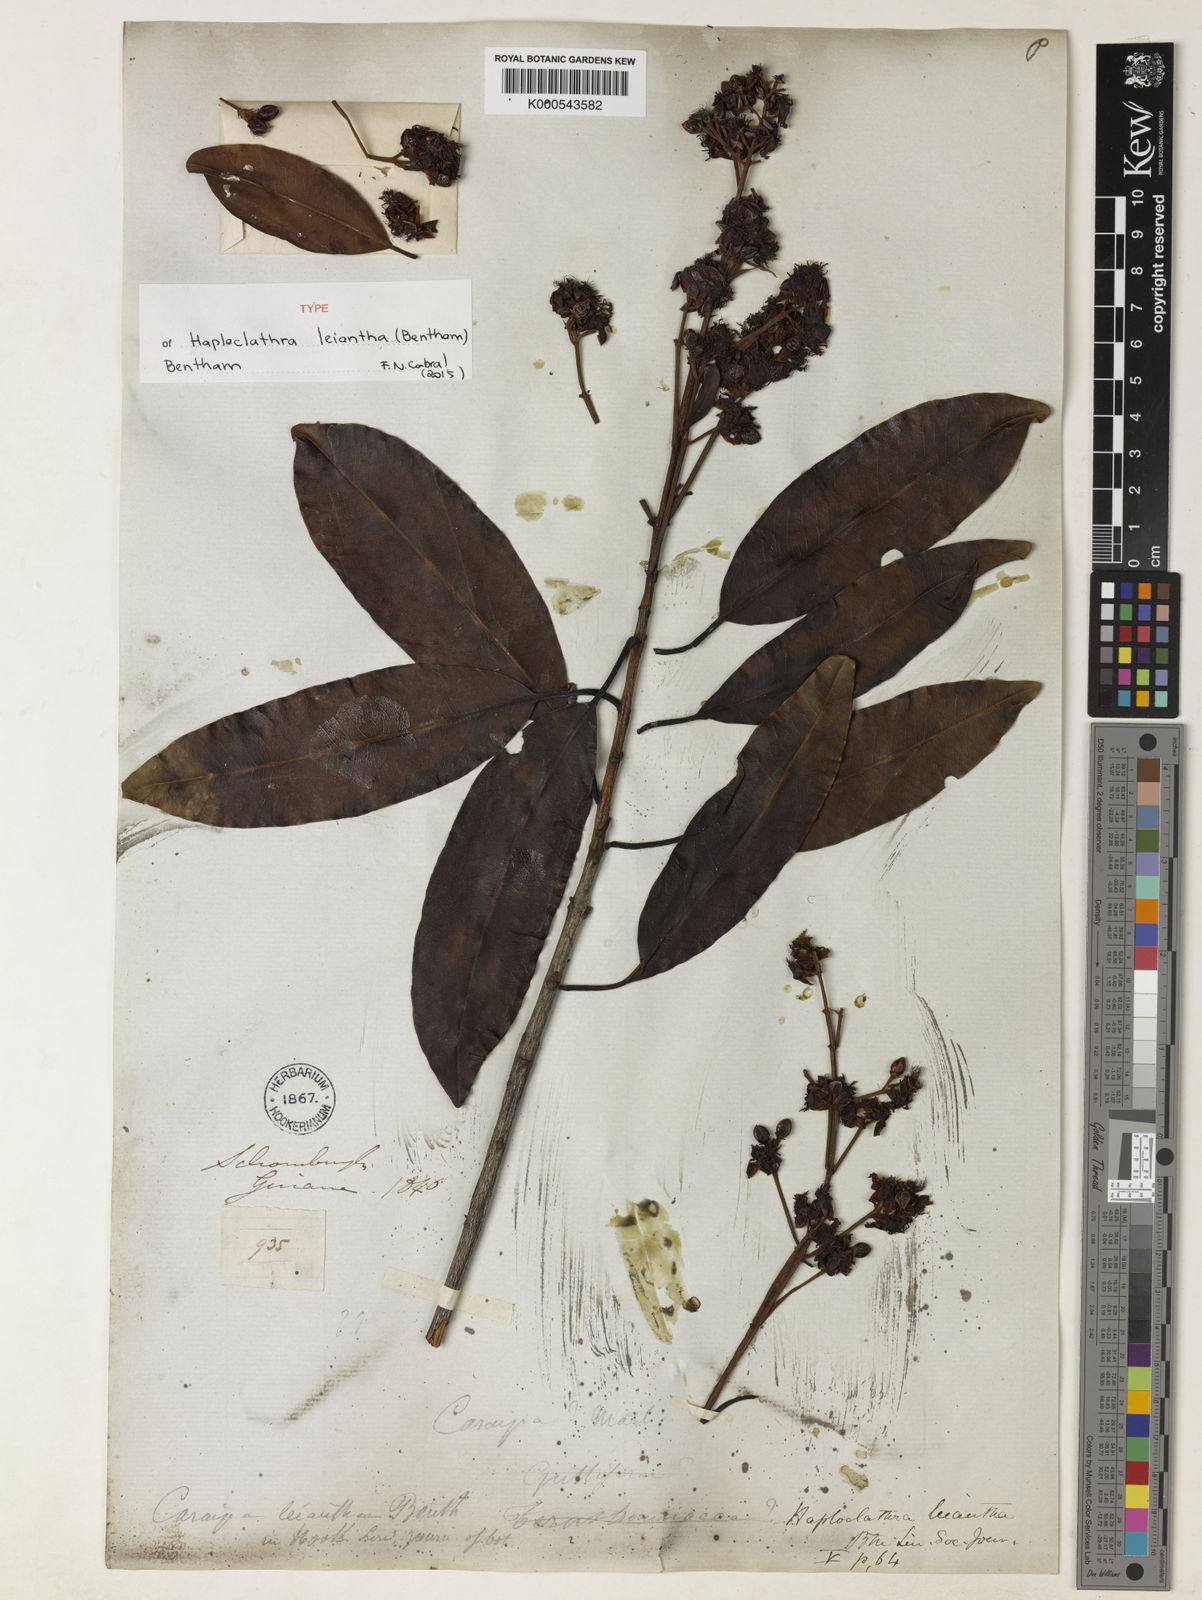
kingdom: Plantae
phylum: Tracheophyta
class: Magnoliopsida
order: Malpighiales
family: Calophyllaceae
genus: Haploclathra
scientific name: Haploclathra leiantha
